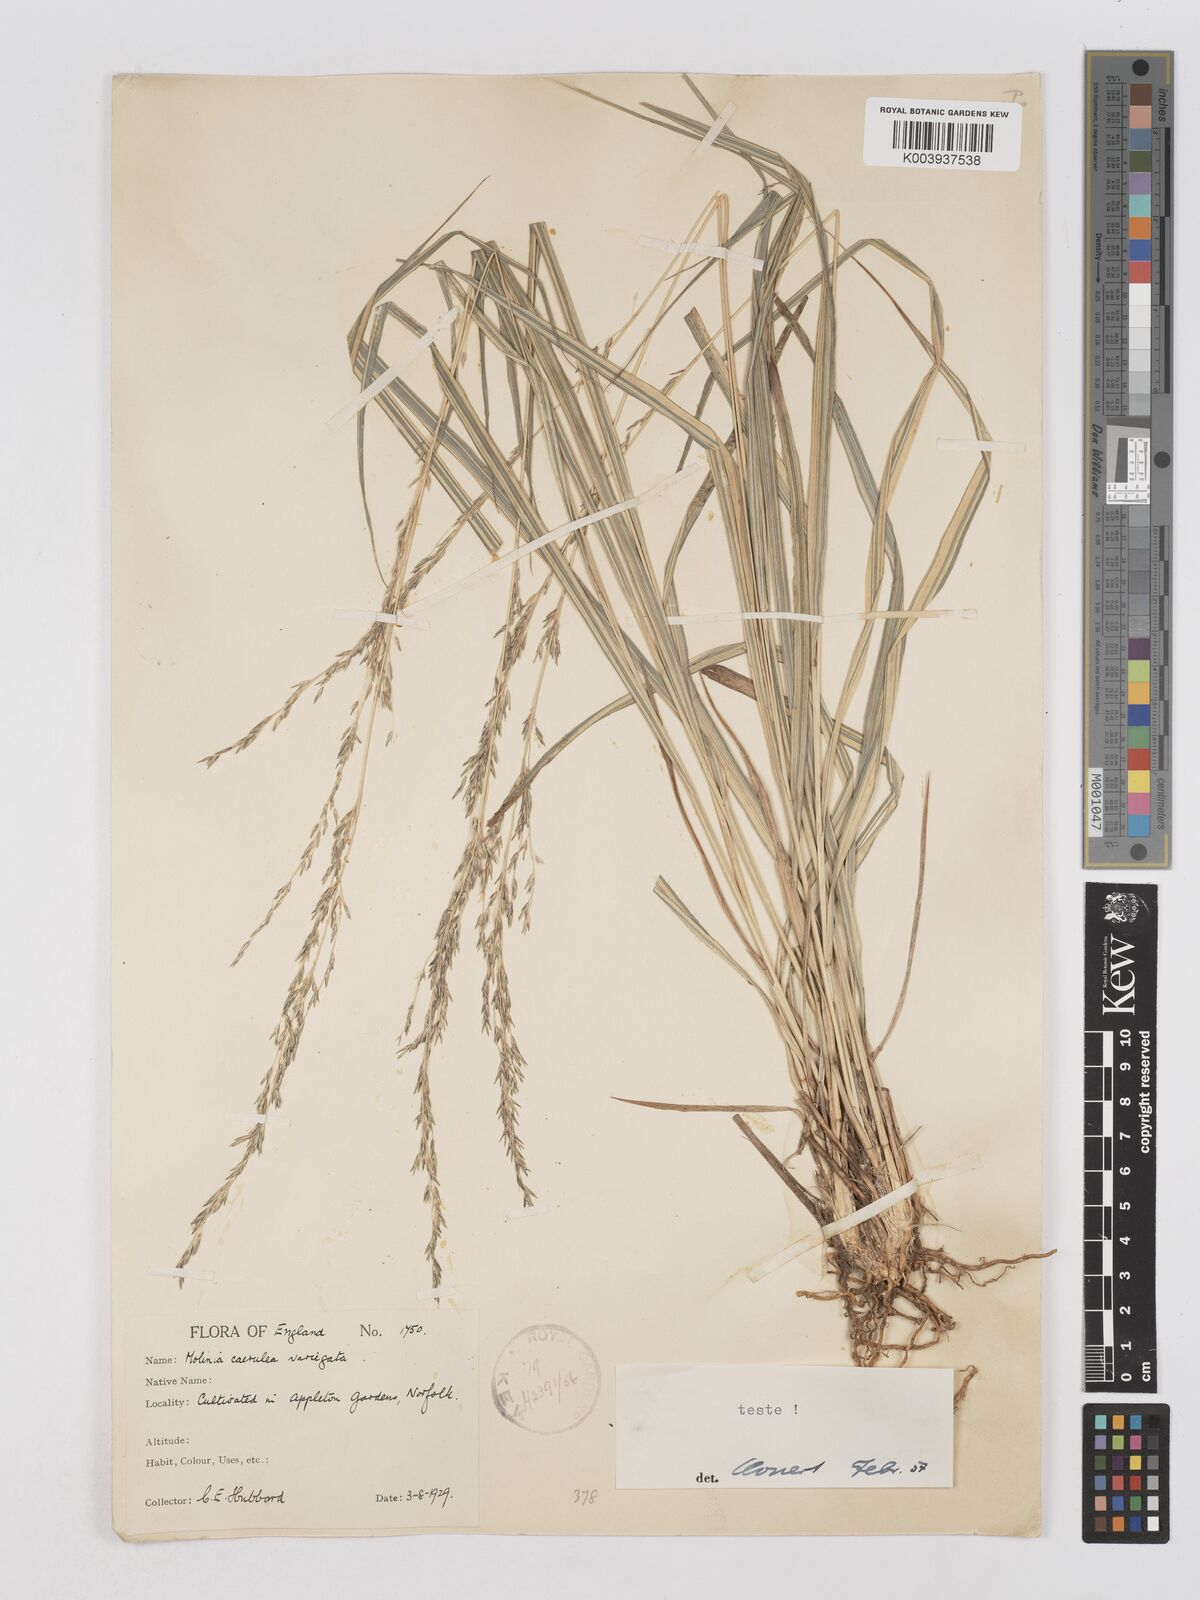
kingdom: Plantae
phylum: Tracheophyta
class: Liliopsida
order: Poales
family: Poaceae
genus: Molinia
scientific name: Molinia caerulea
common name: Purple moor-grass
